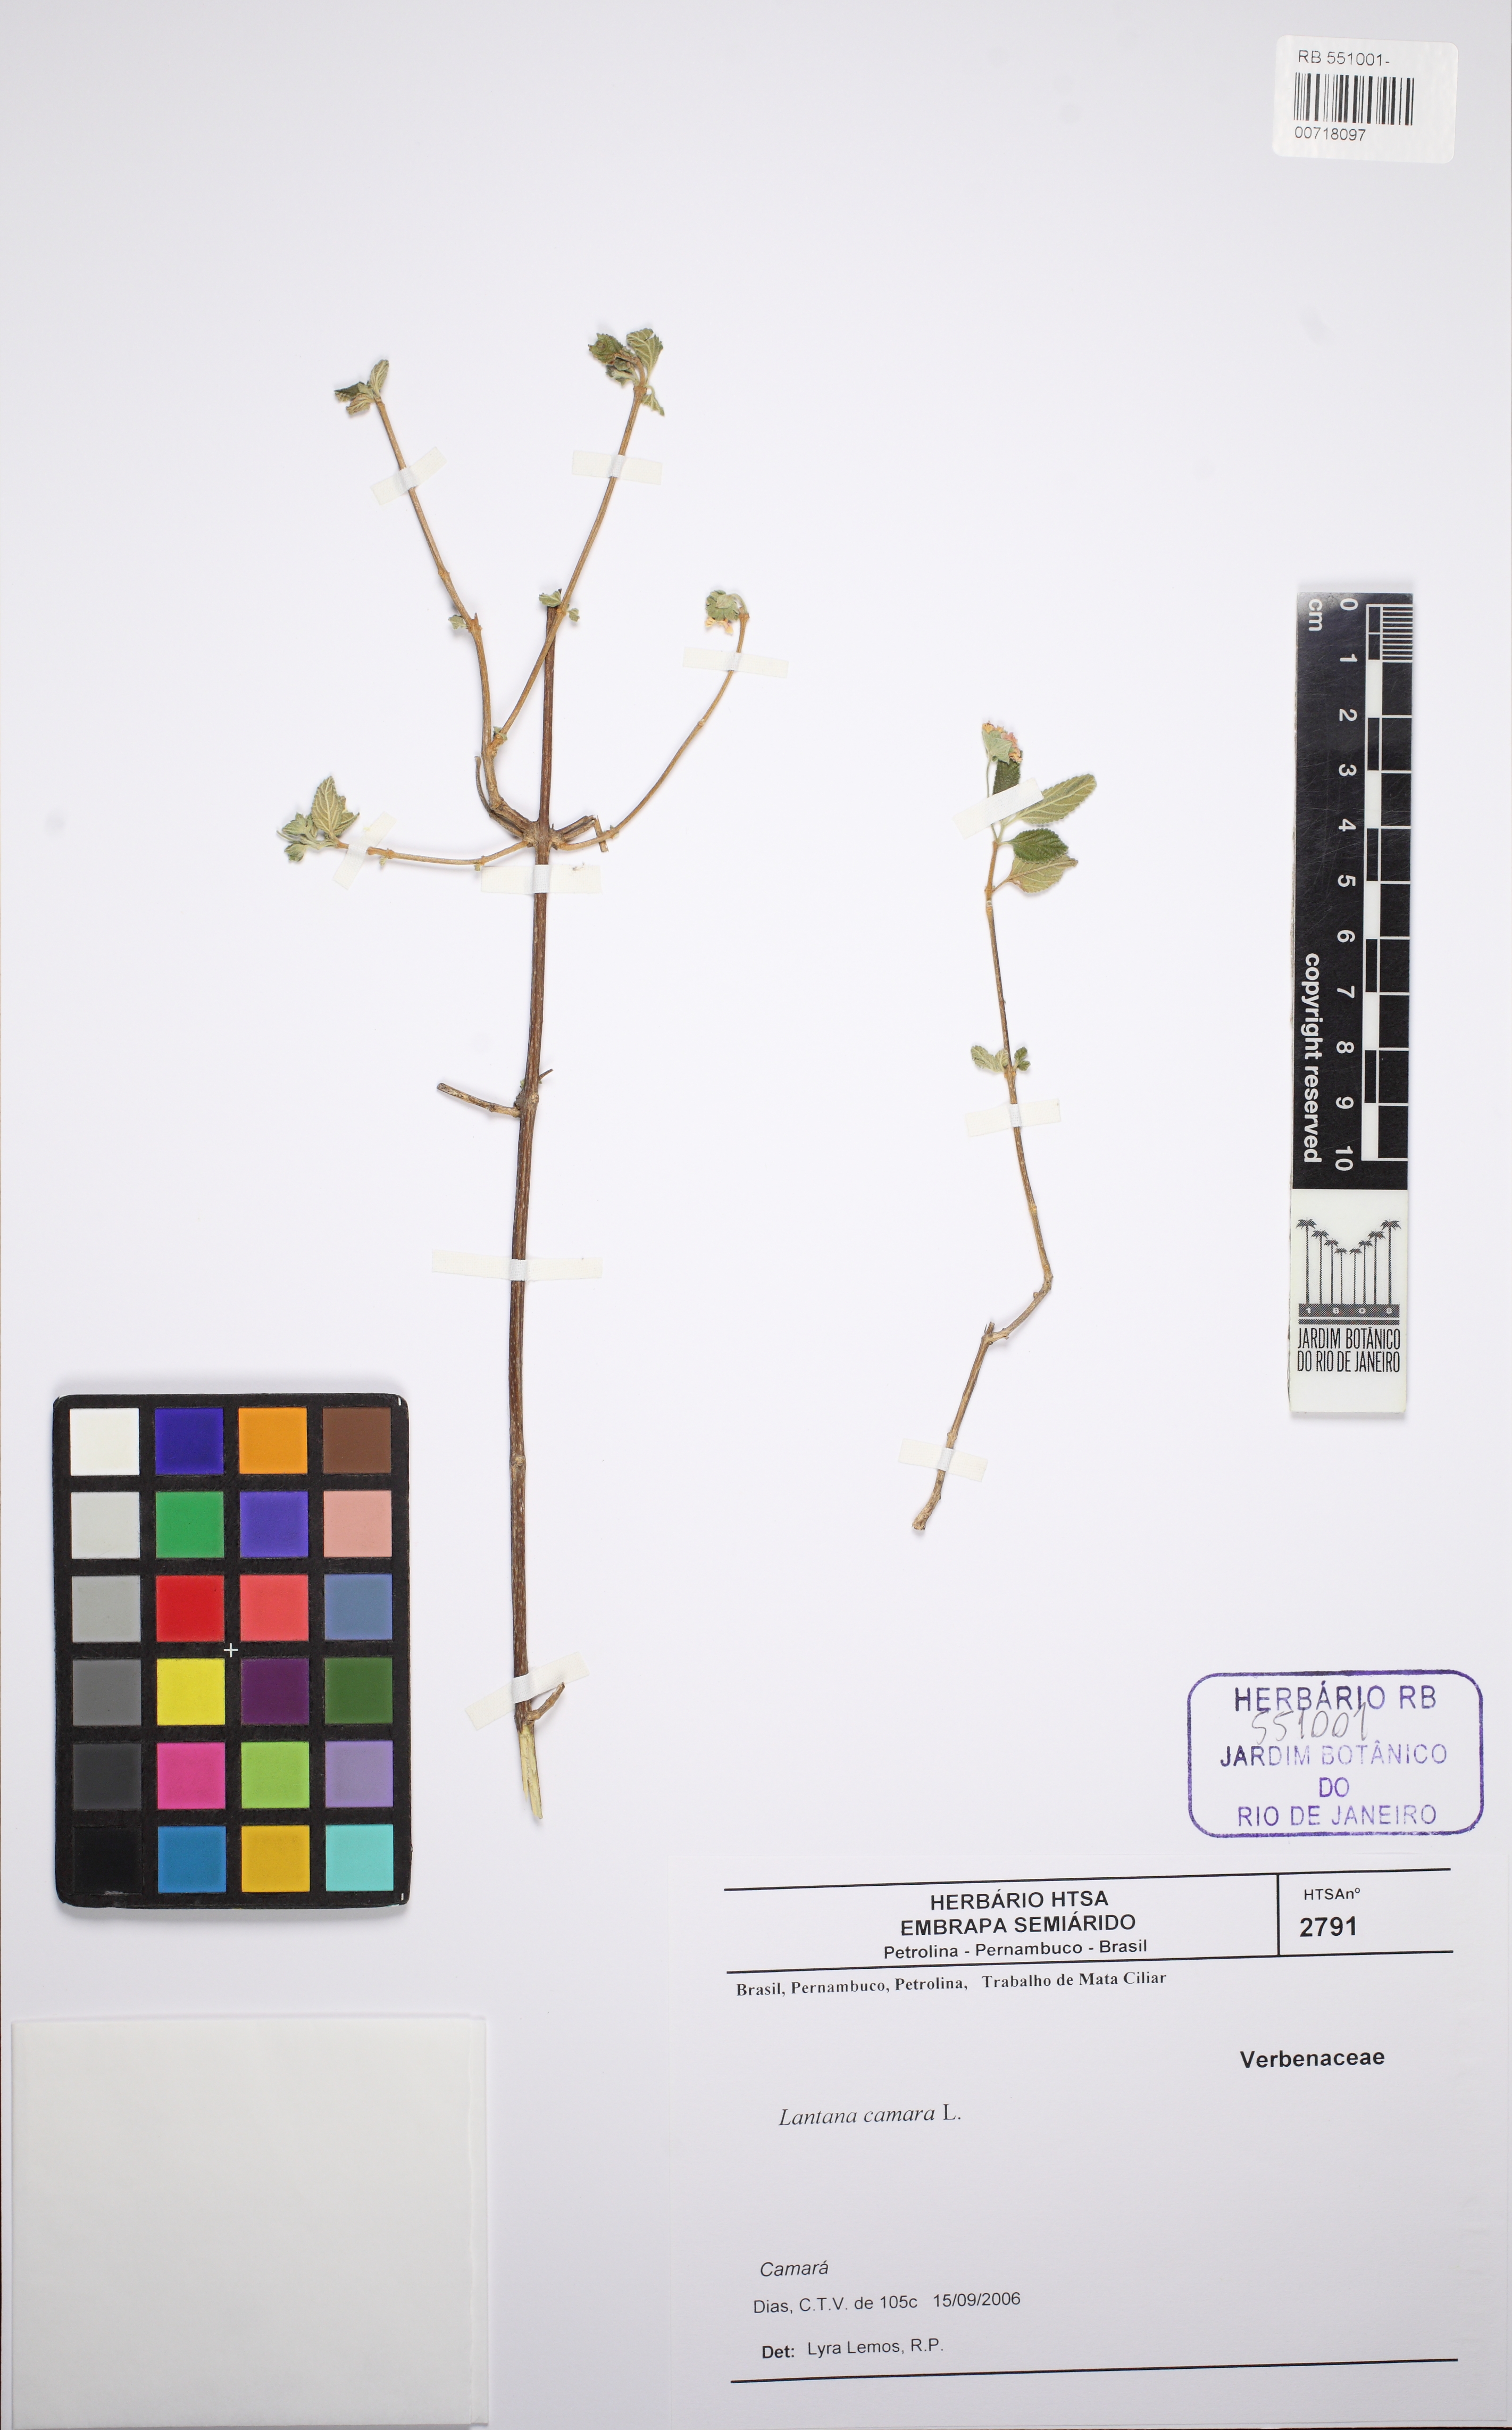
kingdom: Plantae
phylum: Tracheophyta
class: Magnoliopsida
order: Lamiales
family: Verbenaceae
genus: Lantana
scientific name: Lantana camara
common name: Lantana
